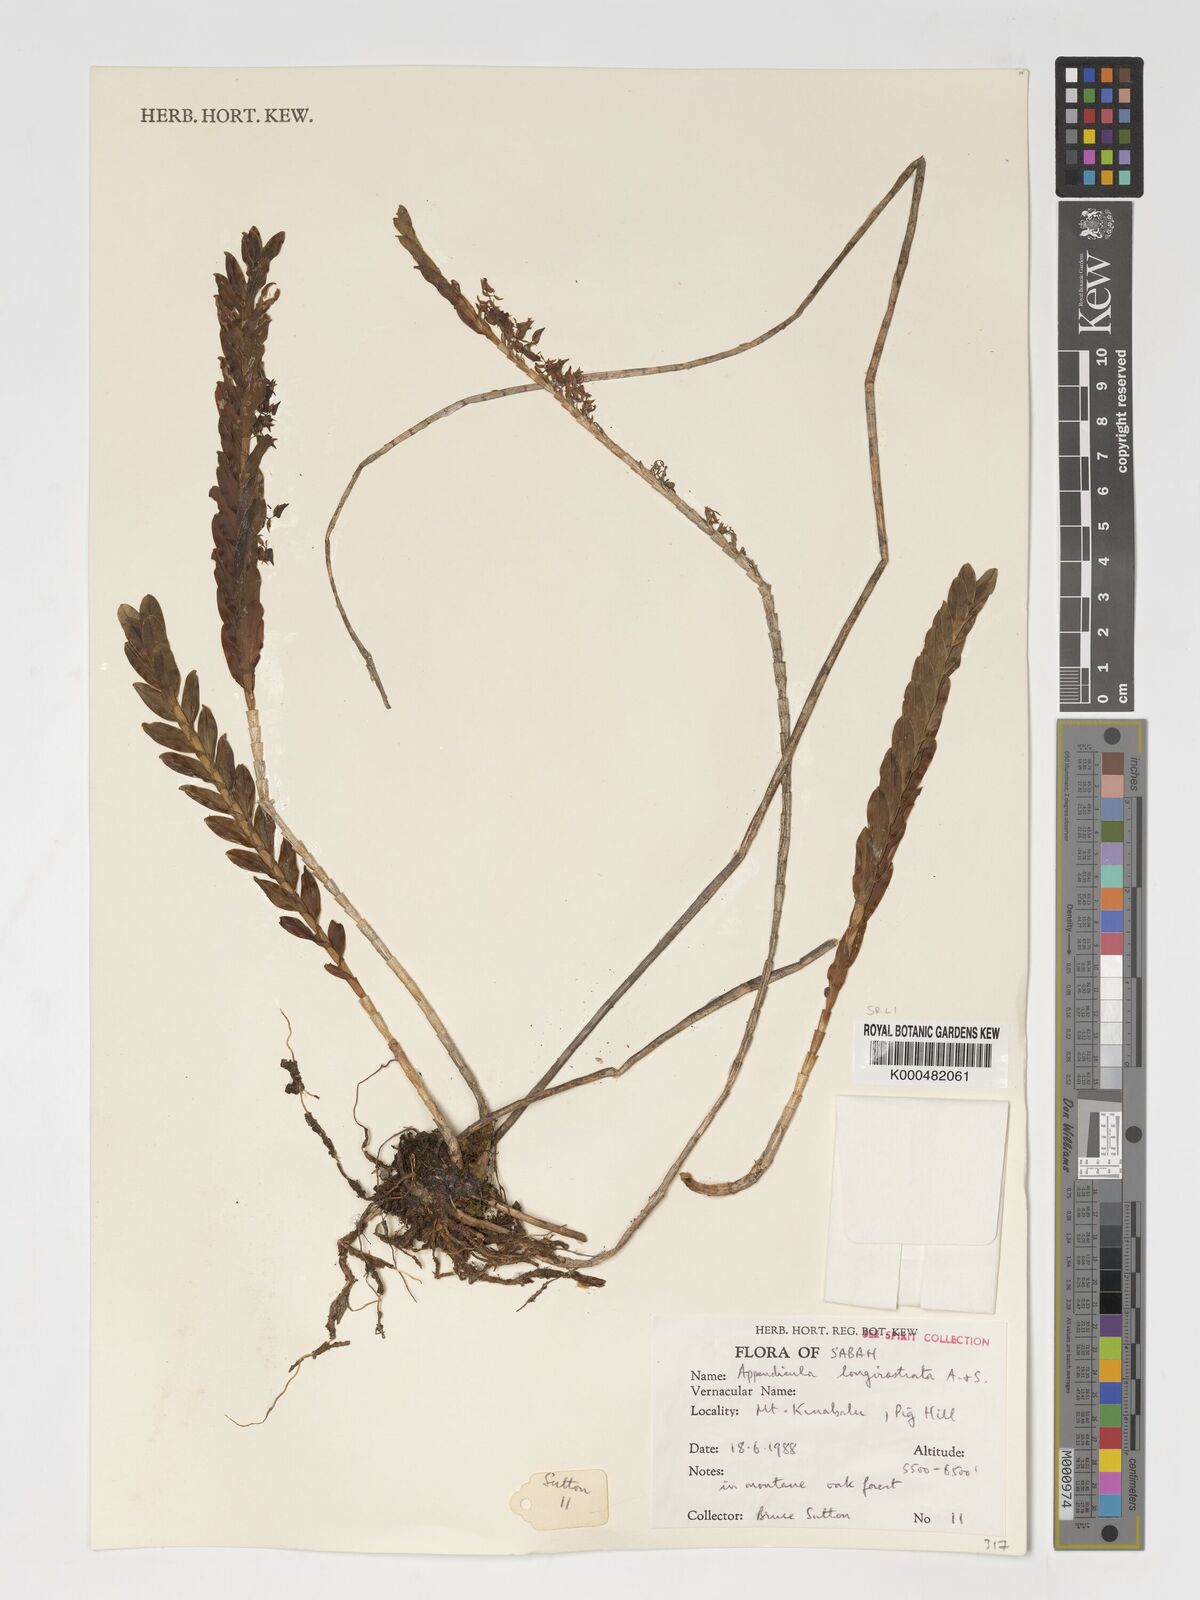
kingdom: Plantae
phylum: Tracheophyta
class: Liliopsida
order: Asparagales
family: Orchidaceae
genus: Appendicula
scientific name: Appendicula longirostrata
